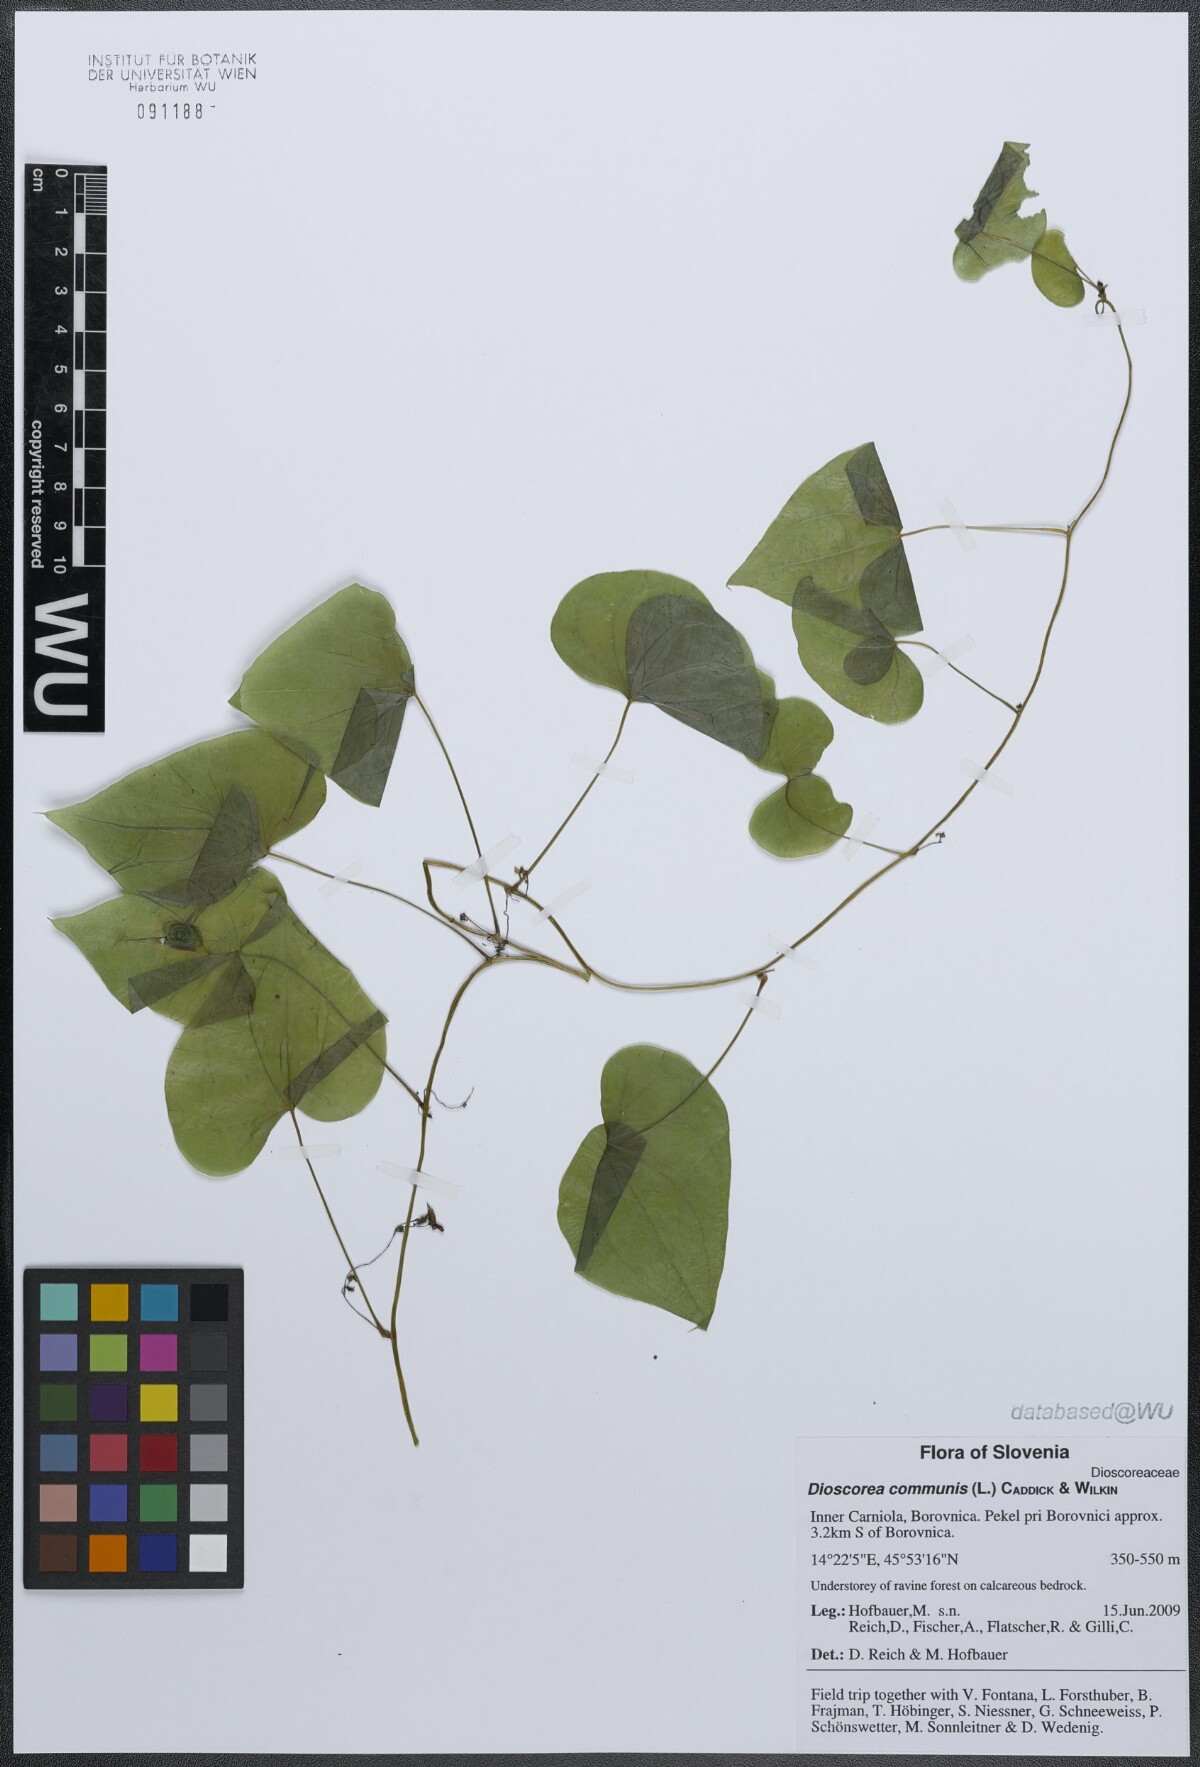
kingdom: Plantae
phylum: Tracheophyta
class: Liliopsida
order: Dioscoreales
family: Dioscoreaceae
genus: Dioscorea
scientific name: Dioscorea communis
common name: Black-bindweed
